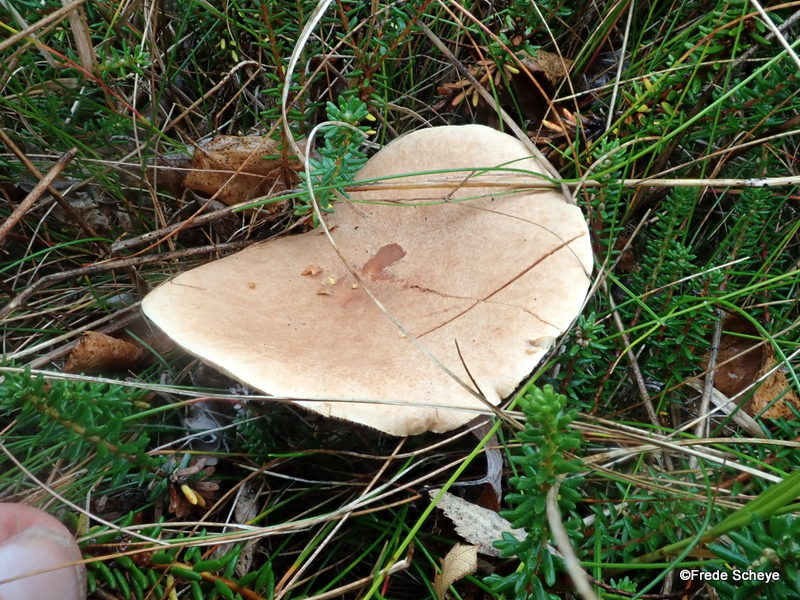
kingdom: Fungi
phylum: Basidiomycota
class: Agaricomycetes
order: Russulales
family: Russulaceae
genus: Lactarius
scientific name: Lactarius helvus
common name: mose-mælkehat
